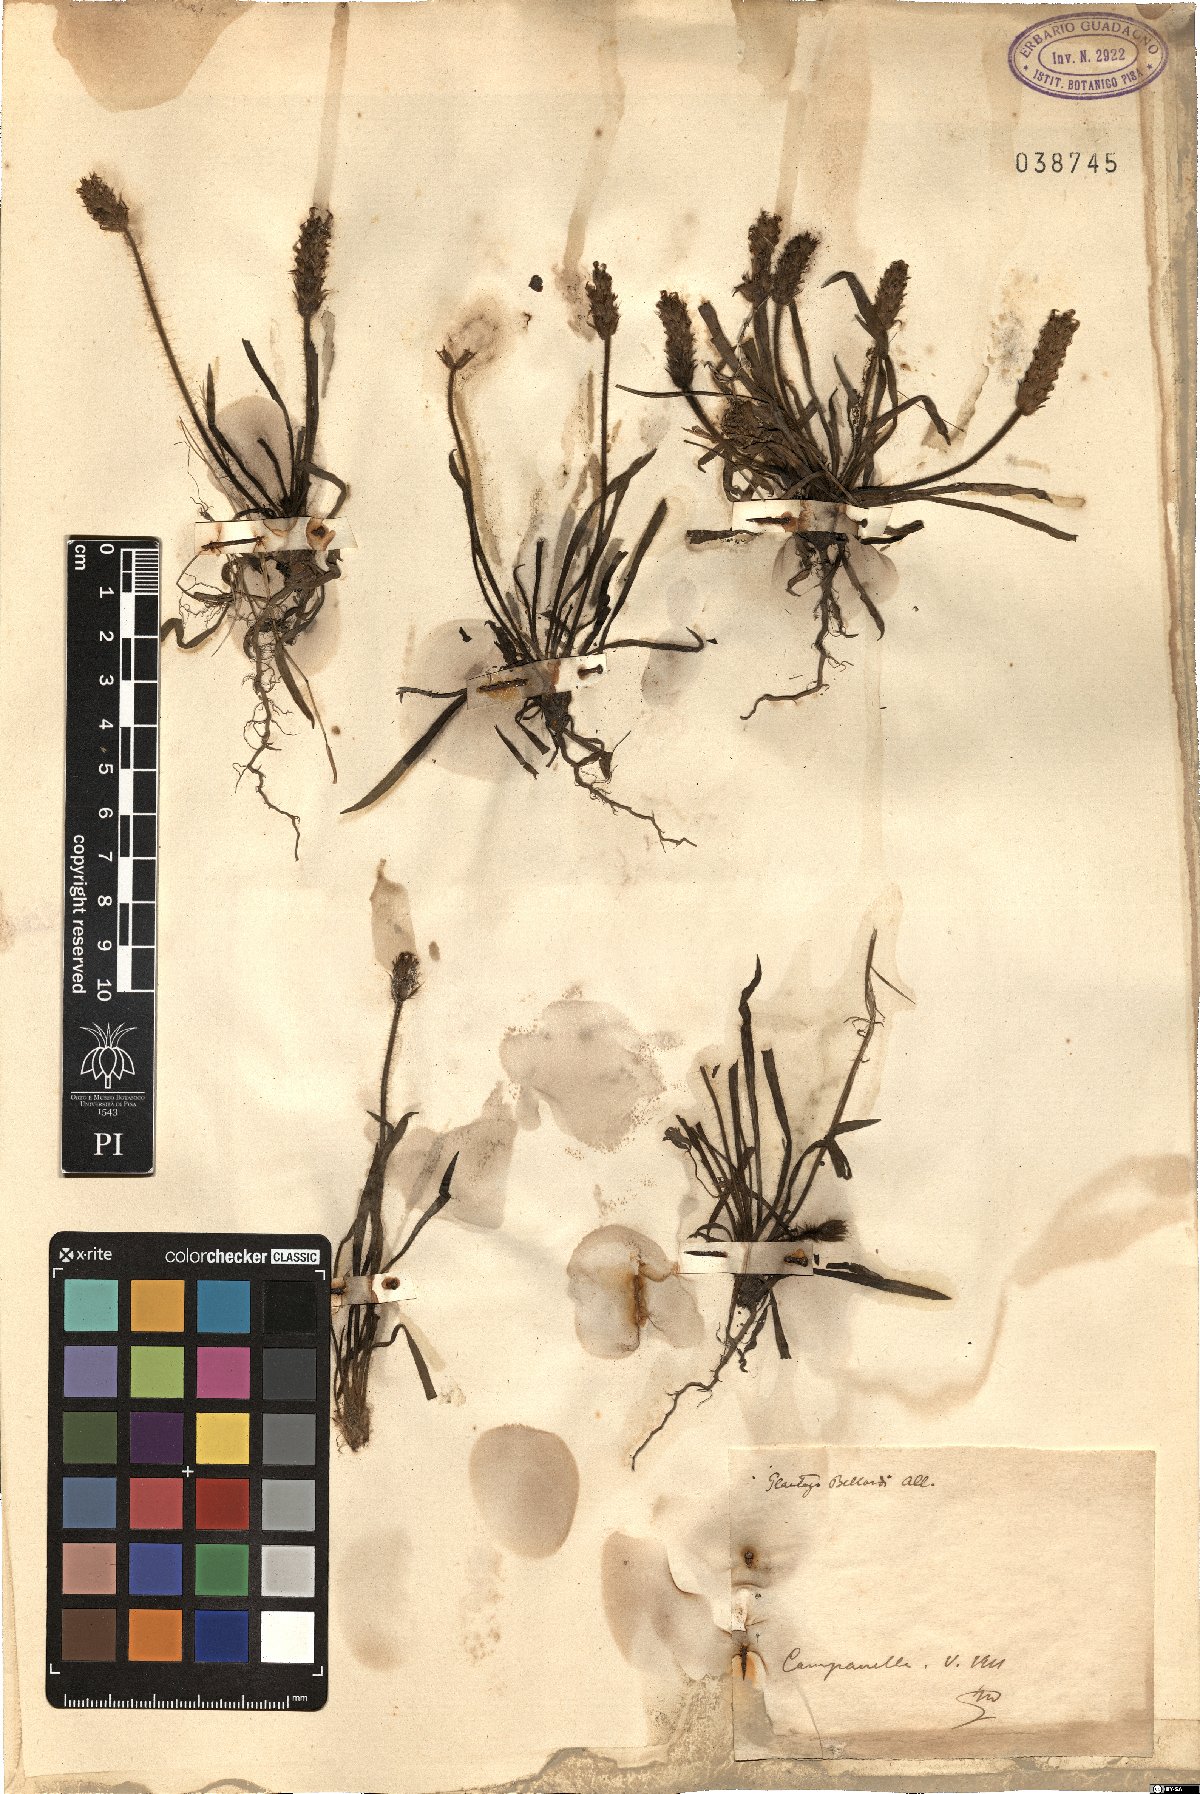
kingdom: Plantae
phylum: Tracheophyta
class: Magnoliopsida
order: Lamiales
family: Plantaginaceae
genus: Plantago
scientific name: Plantago bellardii
